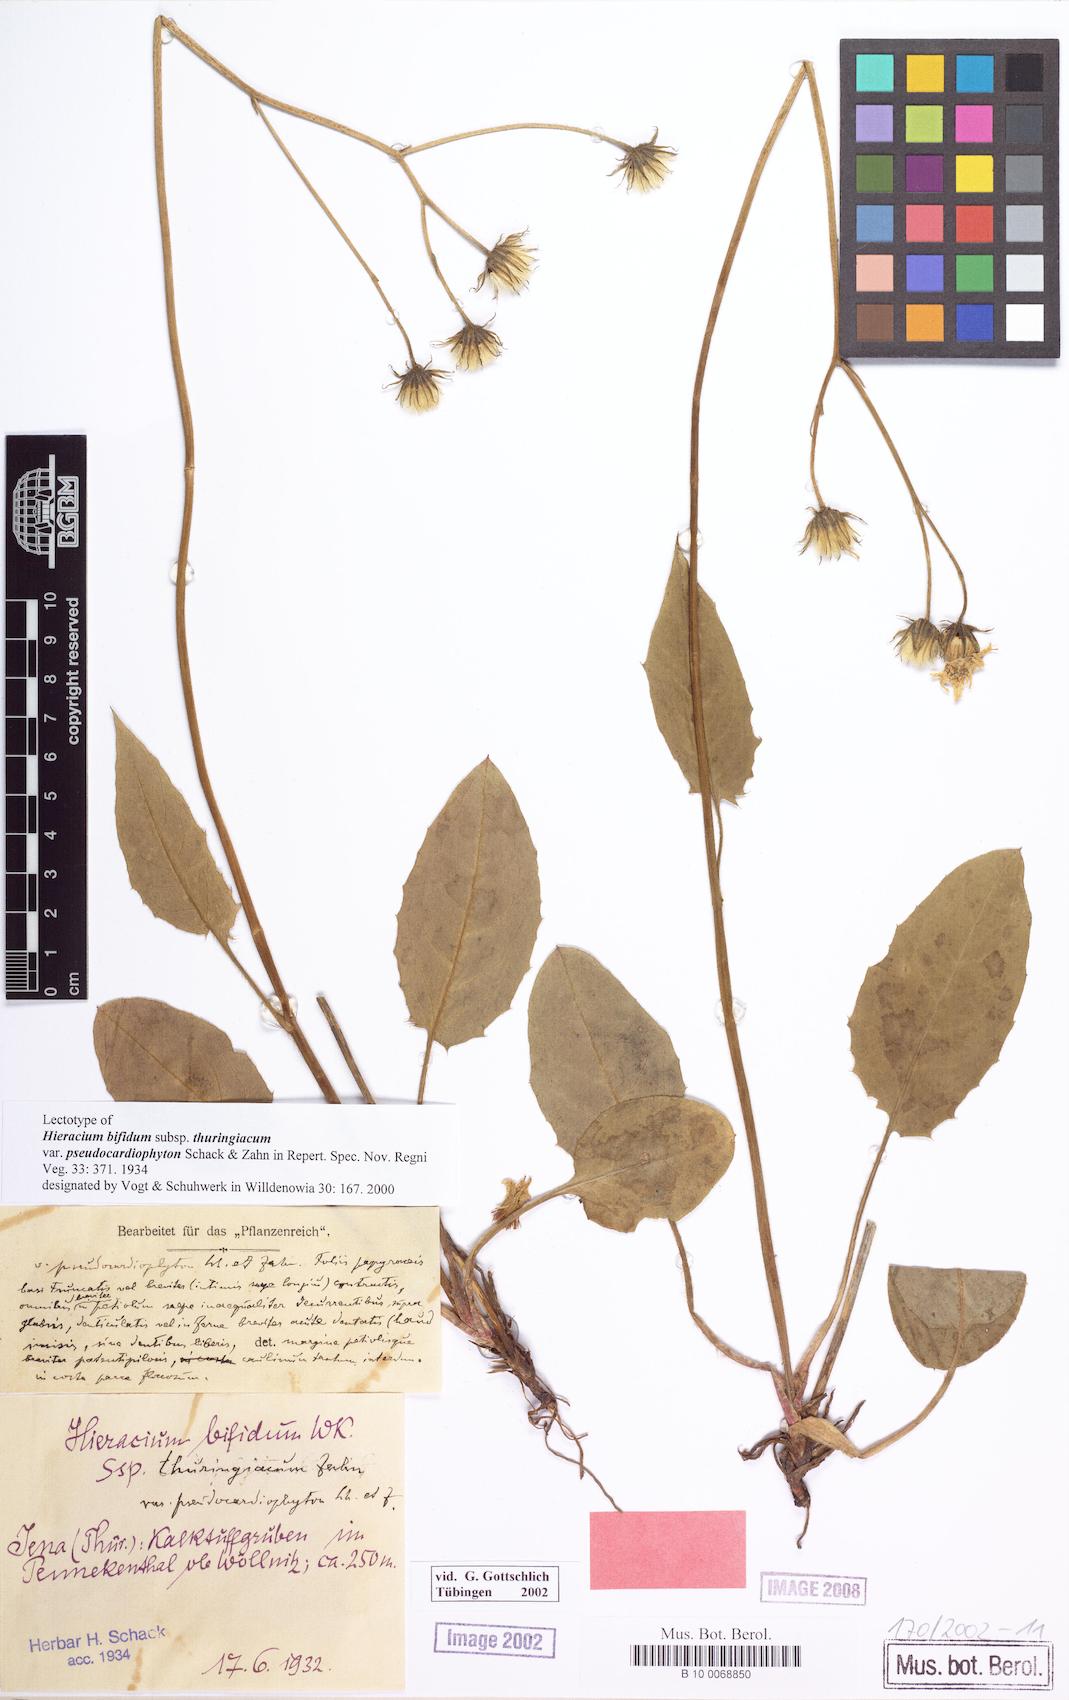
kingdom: Plantae
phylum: Tracheophyta
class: Magnoliopsida
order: Asterales
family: Asteraceae
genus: Hieracium
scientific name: Hieracium bifidum
